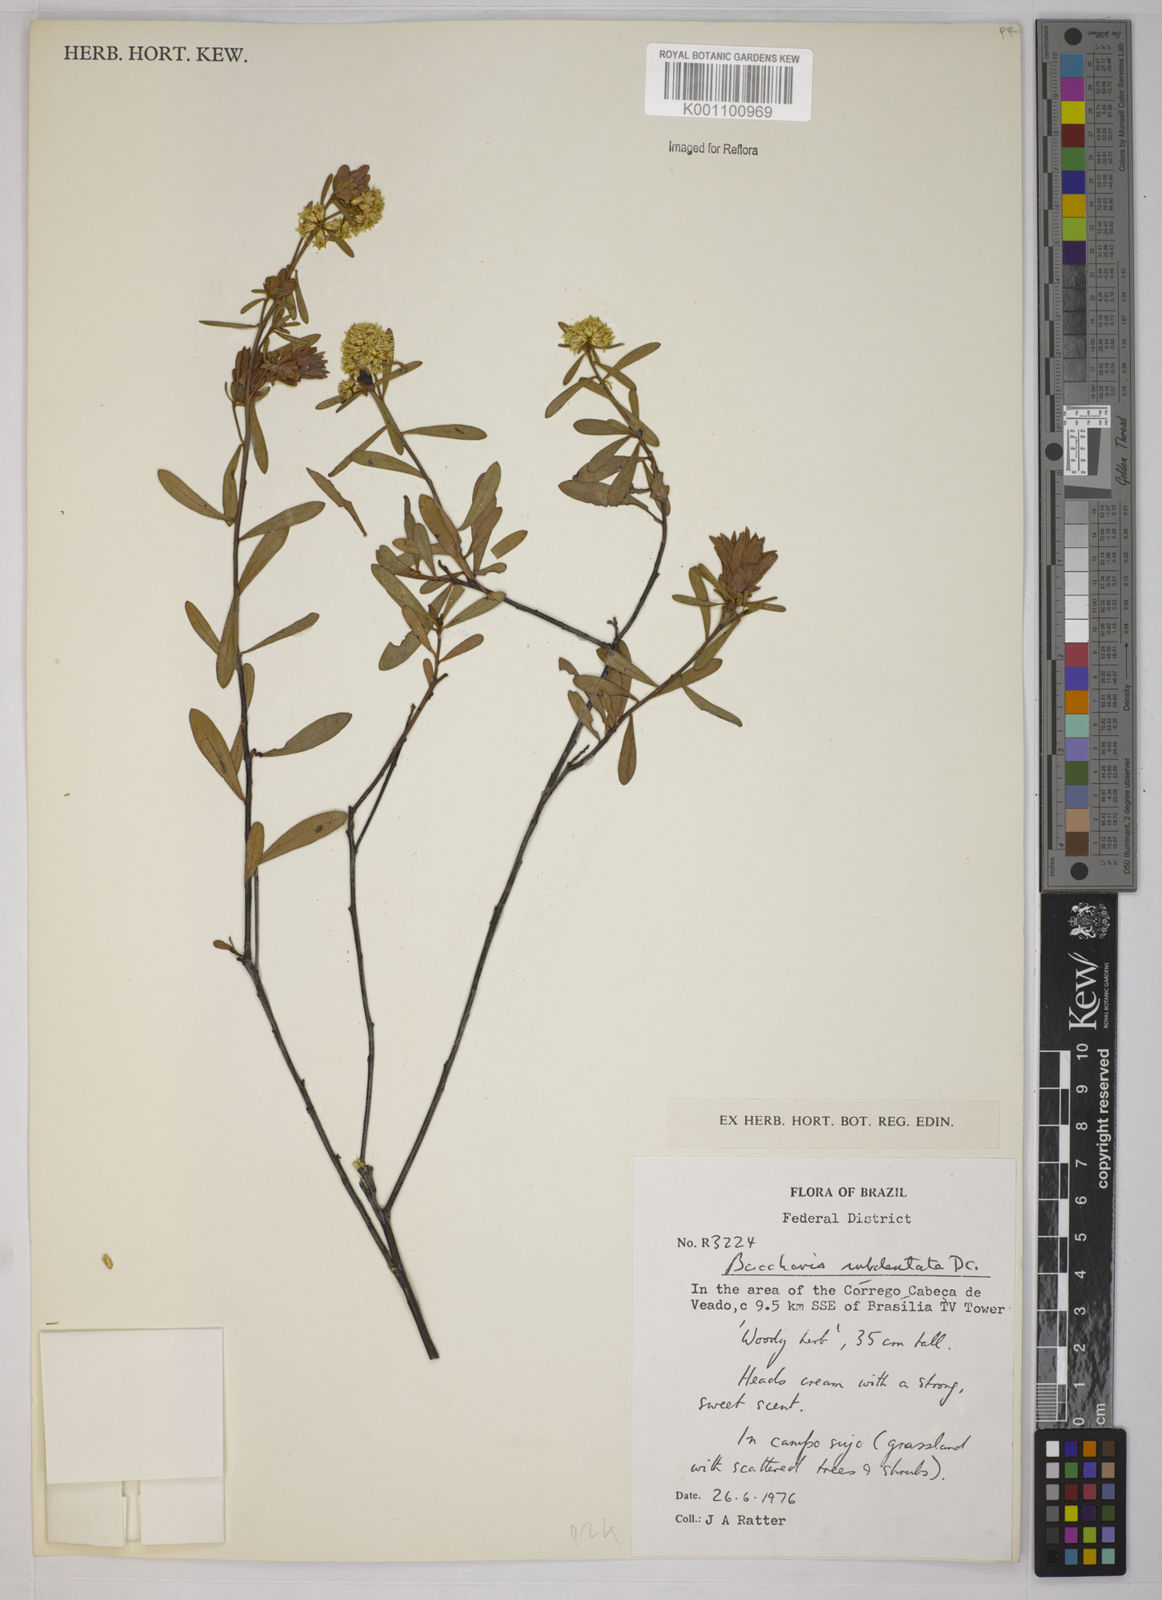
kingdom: Plantae
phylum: Tracheophyta
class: Magnoliopsida
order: Asterales
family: Asteraceae
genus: Baccharis
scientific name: Baccharis subdentata
